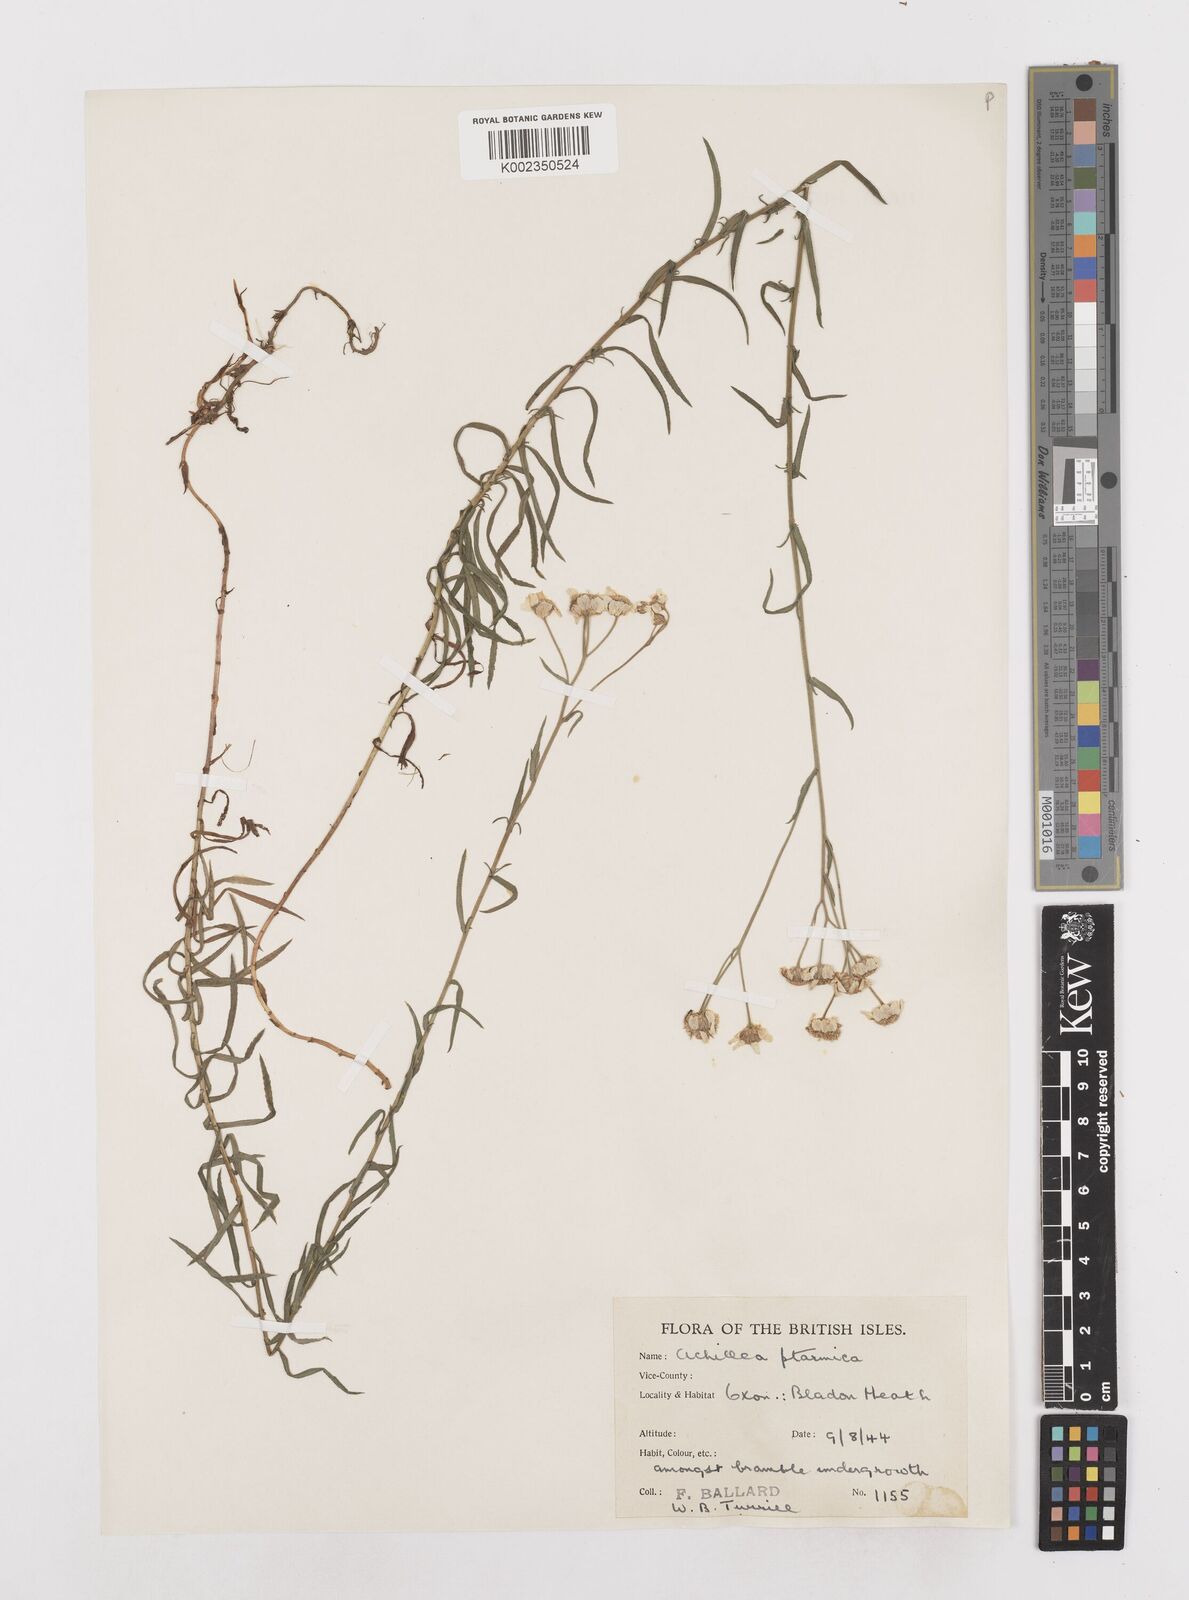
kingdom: Plantae
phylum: Tracheophyta
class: Magnoliopsida
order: Asterales
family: Asteraceae
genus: Achillea
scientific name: Achillea ptarmica
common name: Sneezeweed
